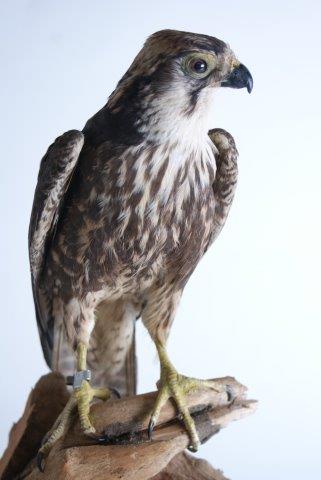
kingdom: Animalia
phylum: Chordata
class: Aves
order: Falconiformes
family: Falconidae
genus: Falco
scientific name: Falco biarmicus
